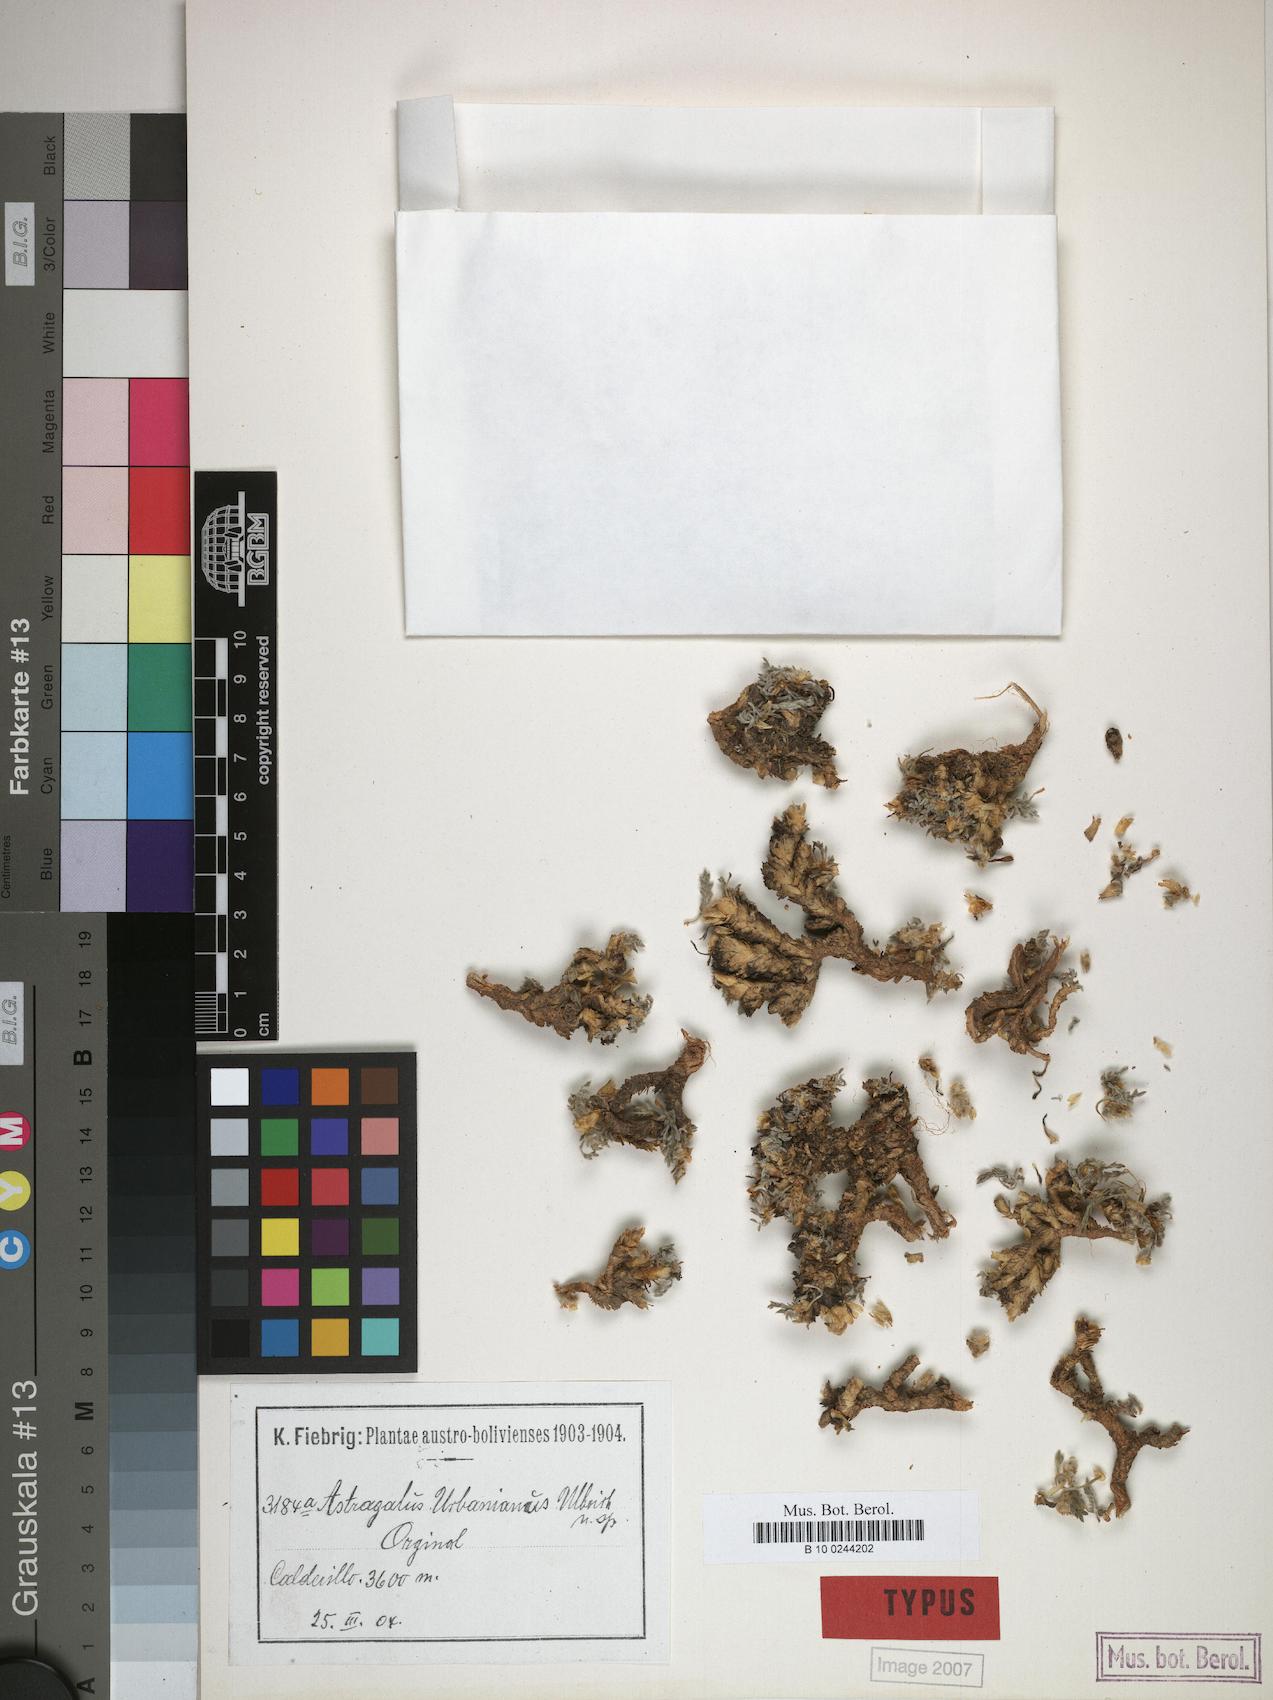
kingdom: Plantae
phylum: Tracheophyta
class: Magnoliopsida
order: Fabales
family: Fabaceae
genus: Astragalus
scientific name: Astragalus urbanianus
